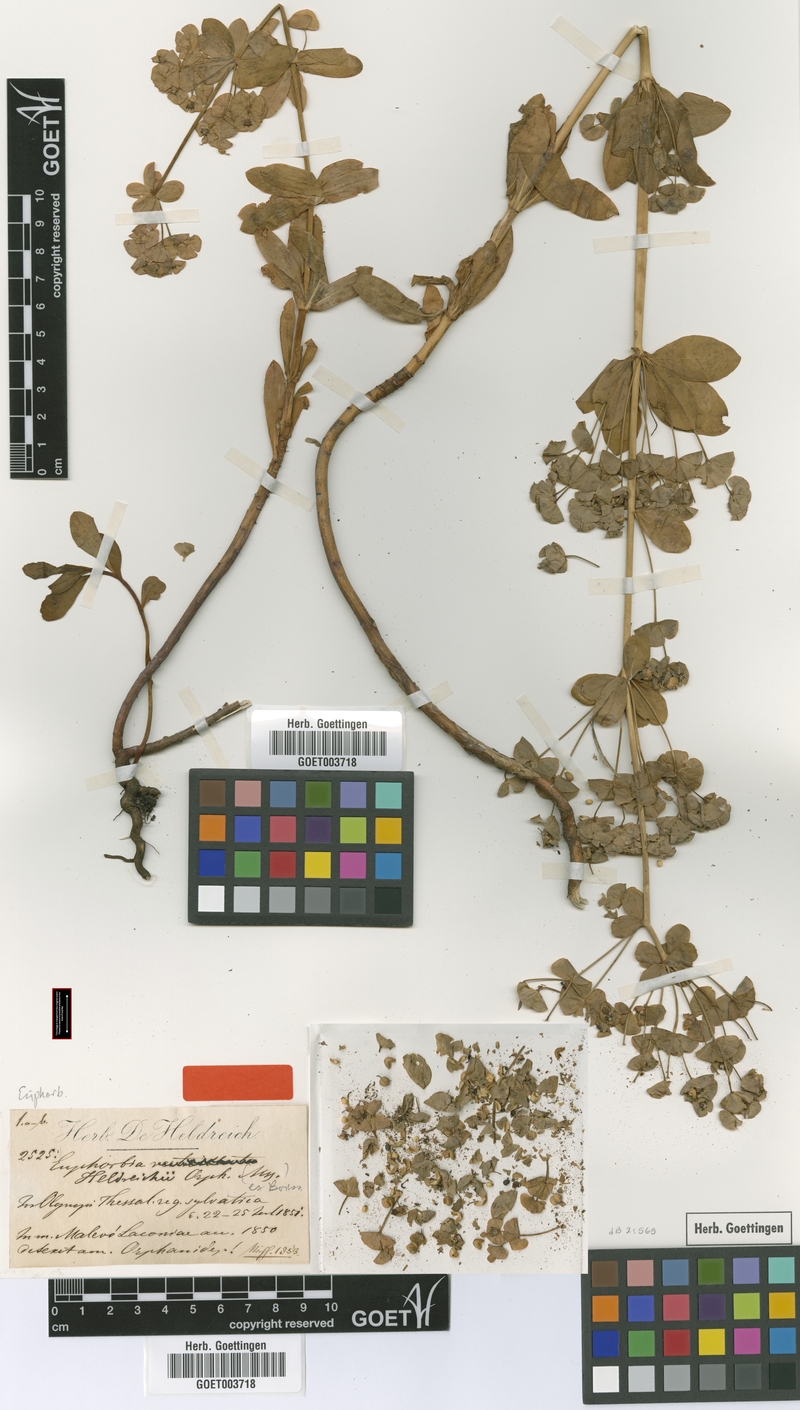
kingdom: Plantae
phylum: Tracheophyta
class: Magnoliopsida
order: Malpighiales
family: Euphorbiaceae
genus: Euphorbia
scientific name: Euphorbia heldreichii
